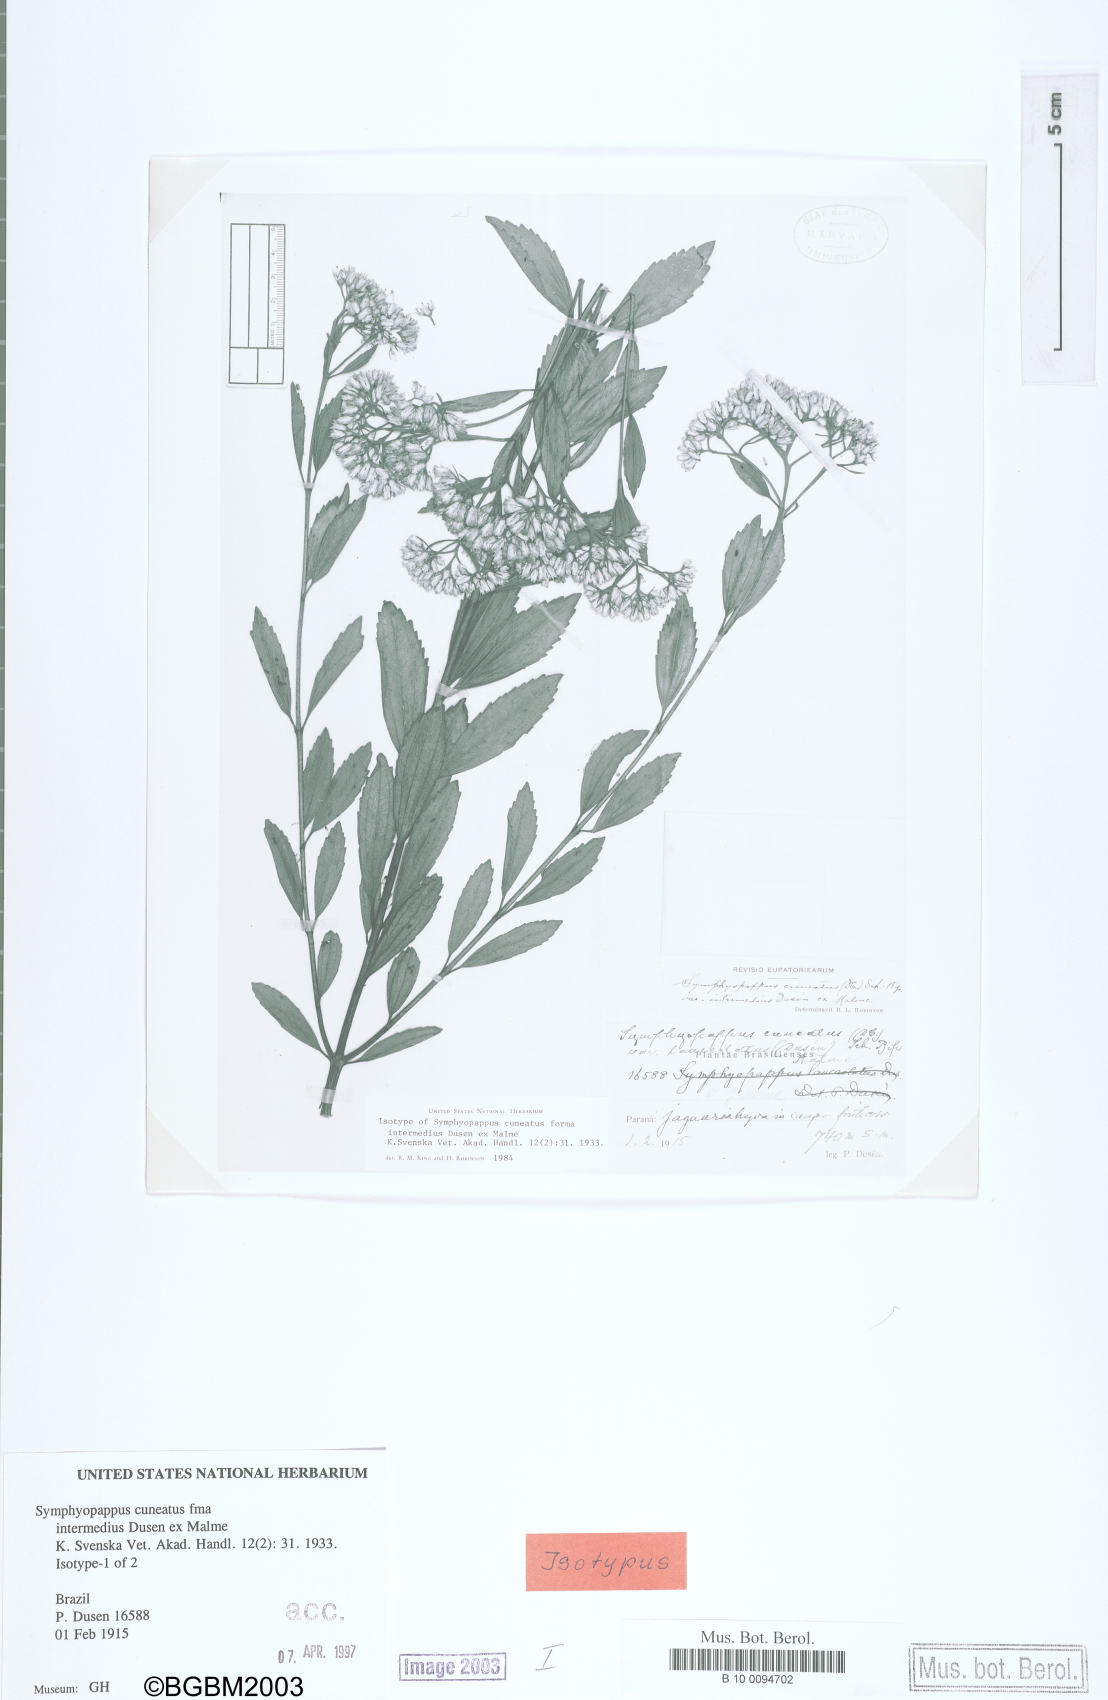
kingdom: Plantae
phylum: Tracheophyta
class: Magnoliopsida
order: Asterales
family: Asteraceae
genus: Symphyopappus
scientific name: Symphyopappus cuneatus
